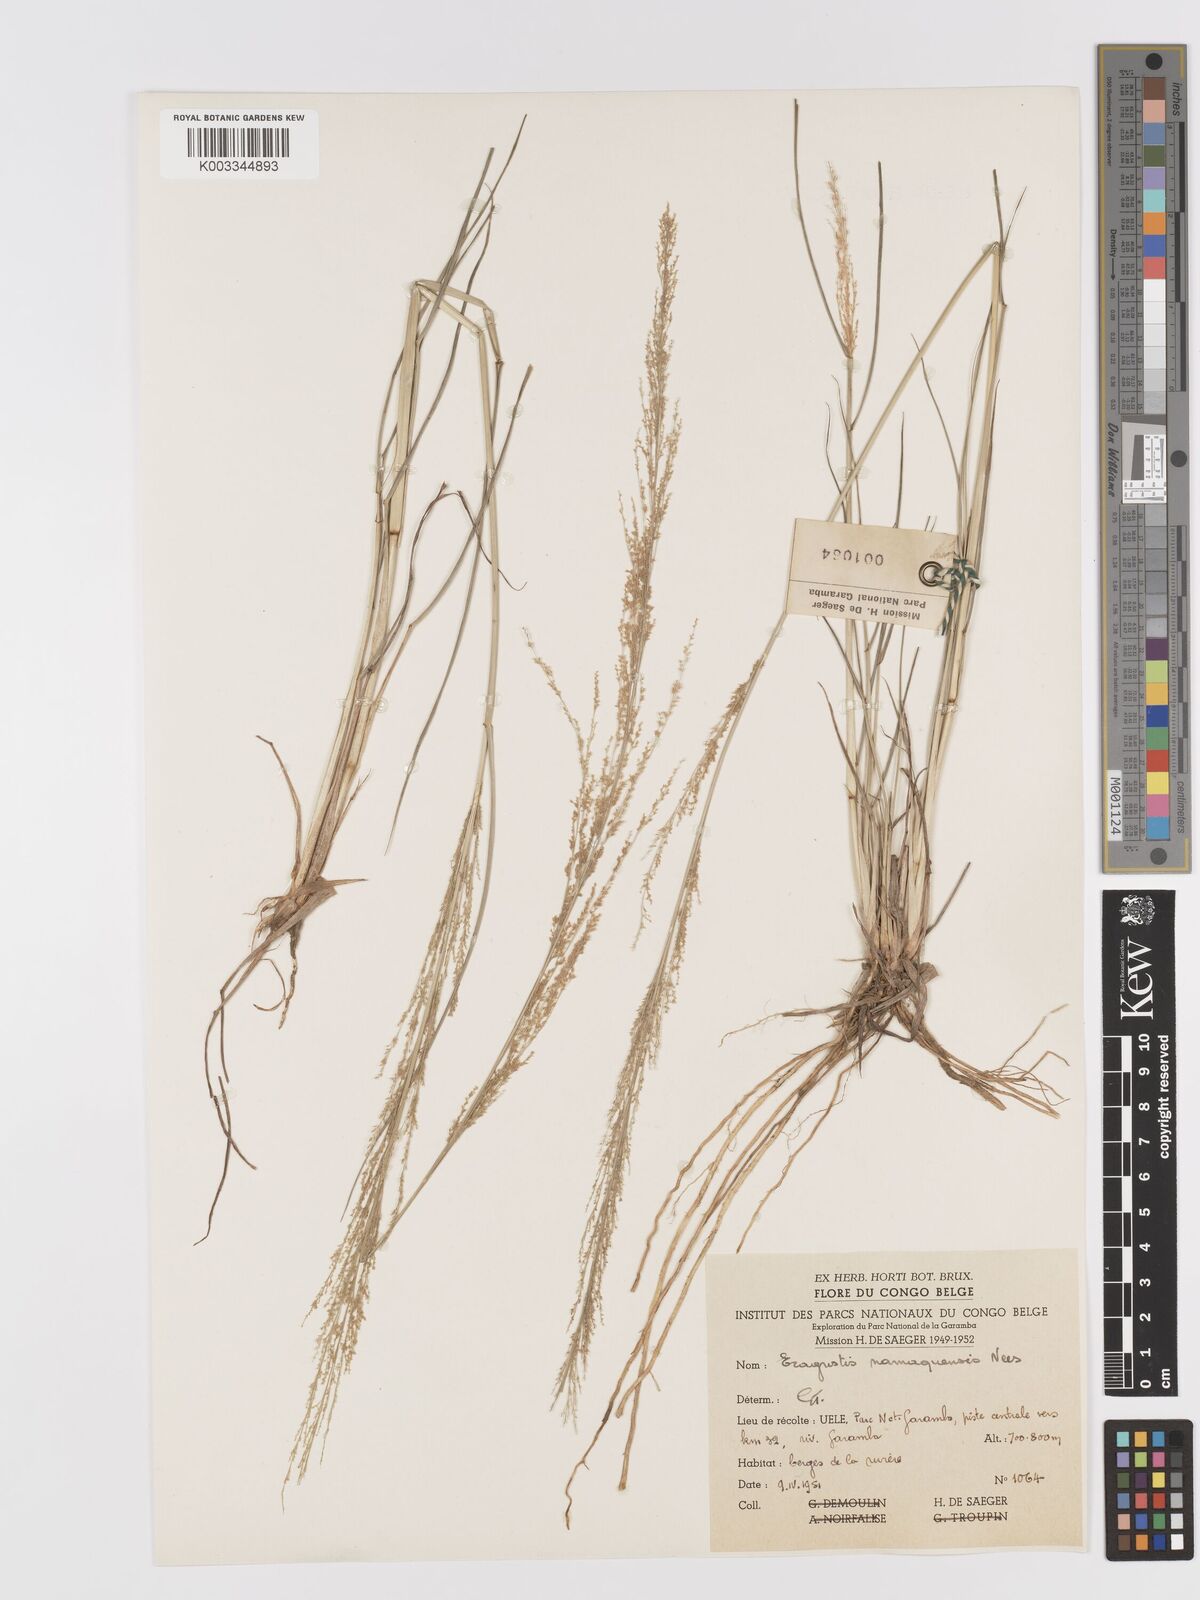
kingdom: Plantae
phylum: Tracheophyta
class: Liliopsida
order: Poales
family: Poaceae
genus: Eragrostis
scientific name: Eragrostis japonica
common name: Pond lovegrass
